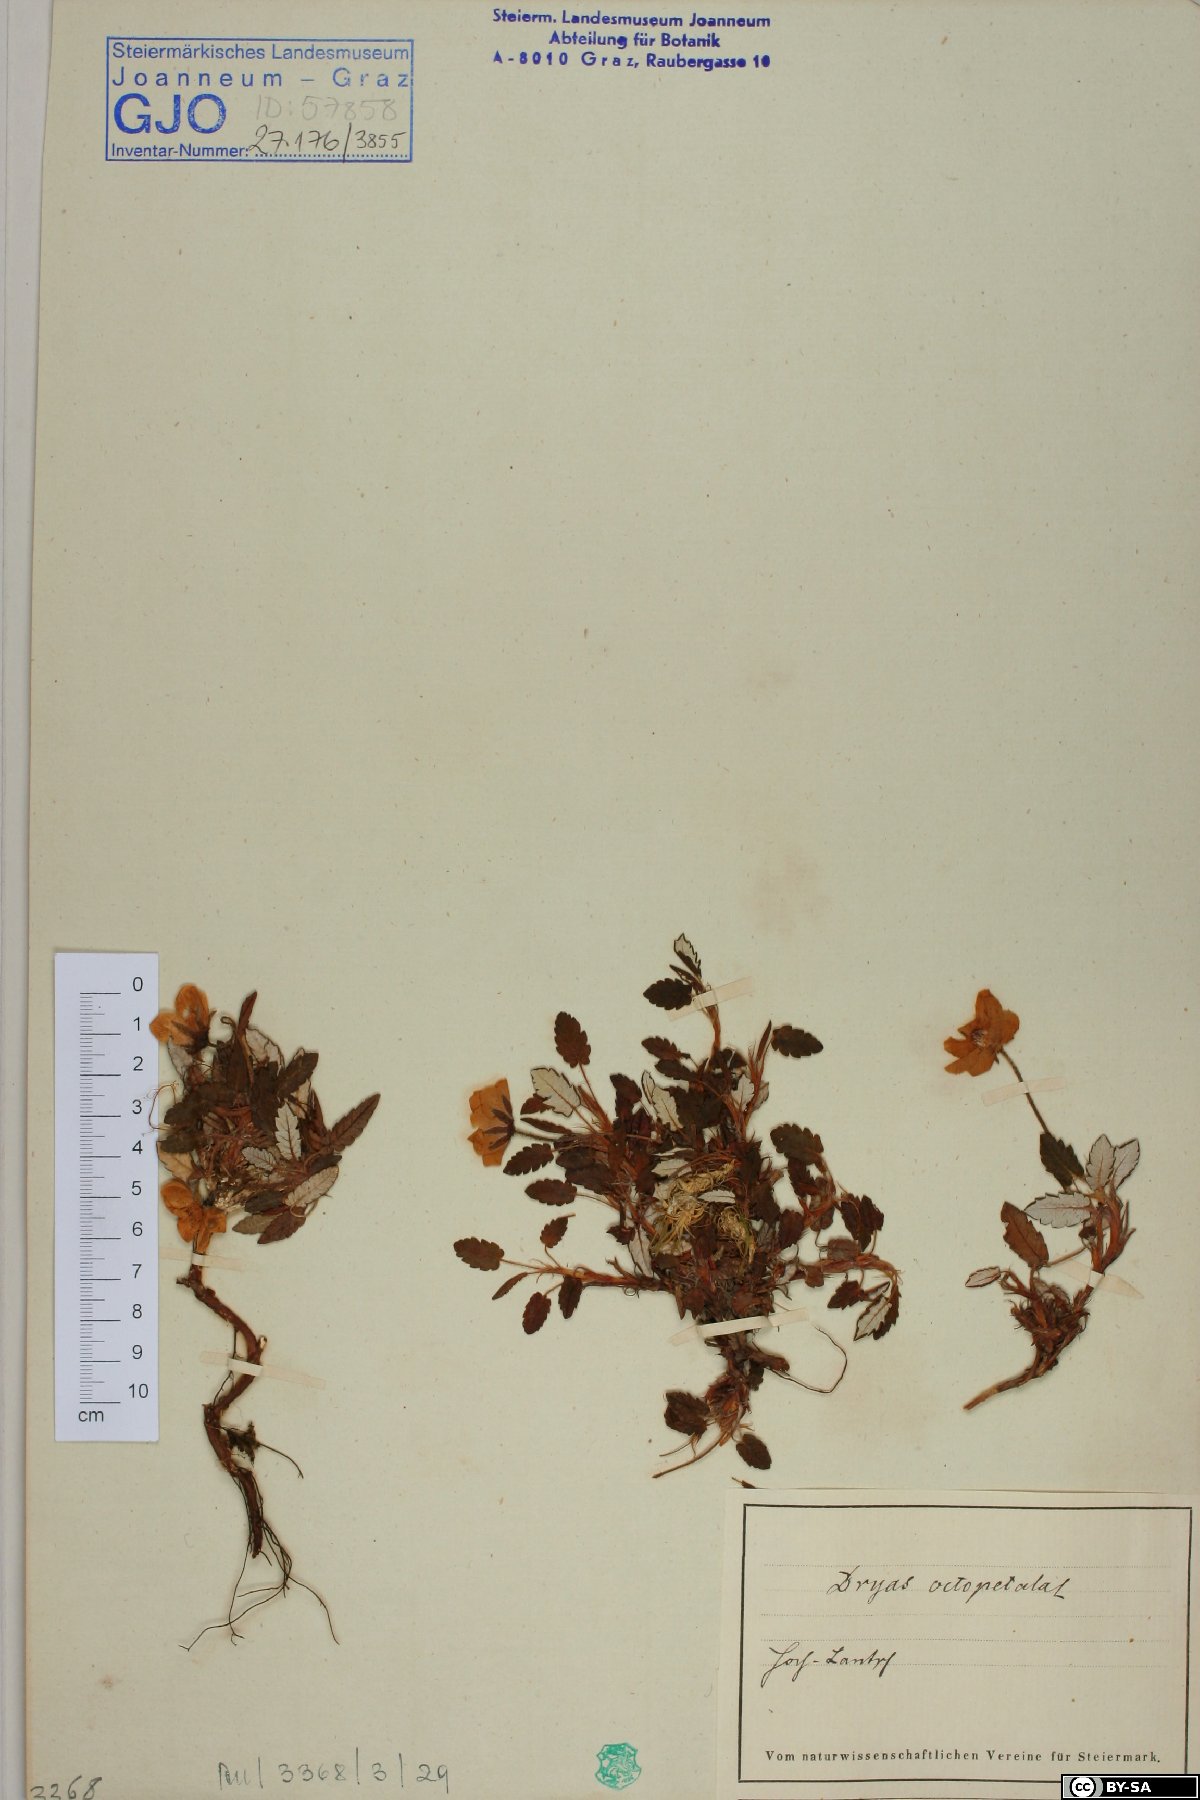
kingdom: Plantae
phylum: Tracheophyta
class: Magnoliopsida
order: Rosales
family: Rosaceae
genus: Dryas
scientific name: Dryas octopetala
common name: Eight-petal mountain-avens
